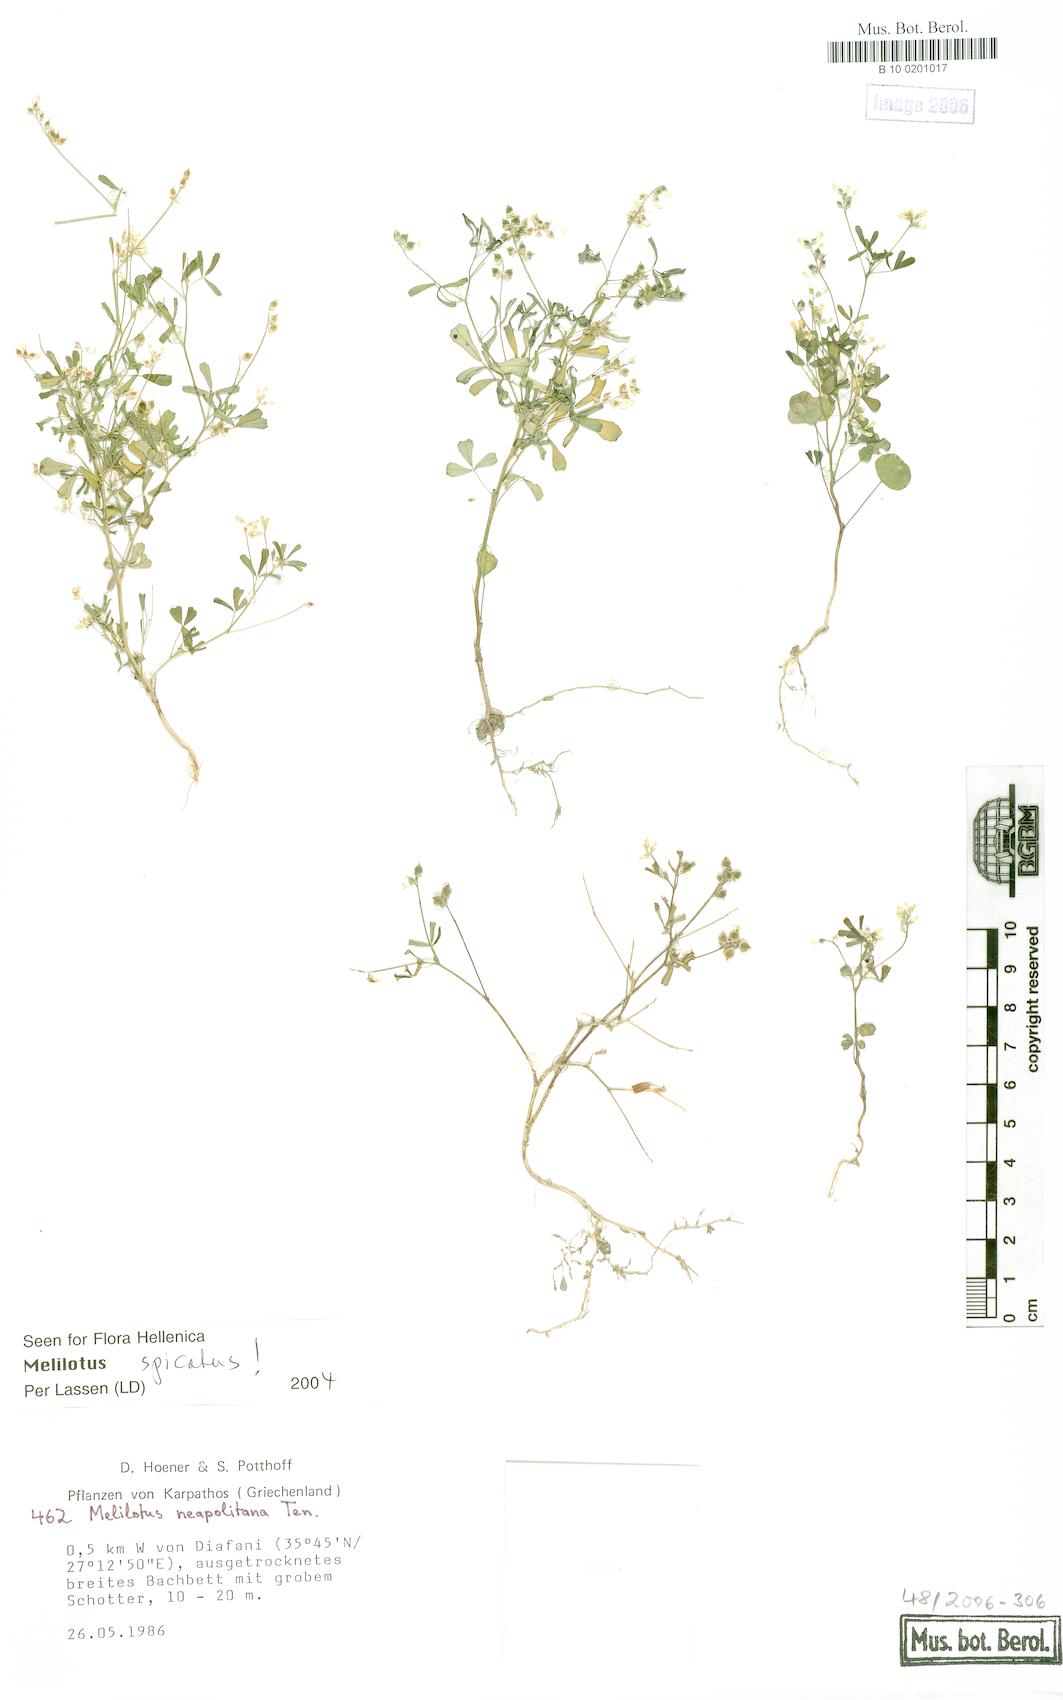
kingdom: Plantae
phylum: Tracheophyta
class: Magnoliopsida
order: Fabales
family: Fabaceae
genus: Melilotus
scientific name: Melilotus neapolitanus
